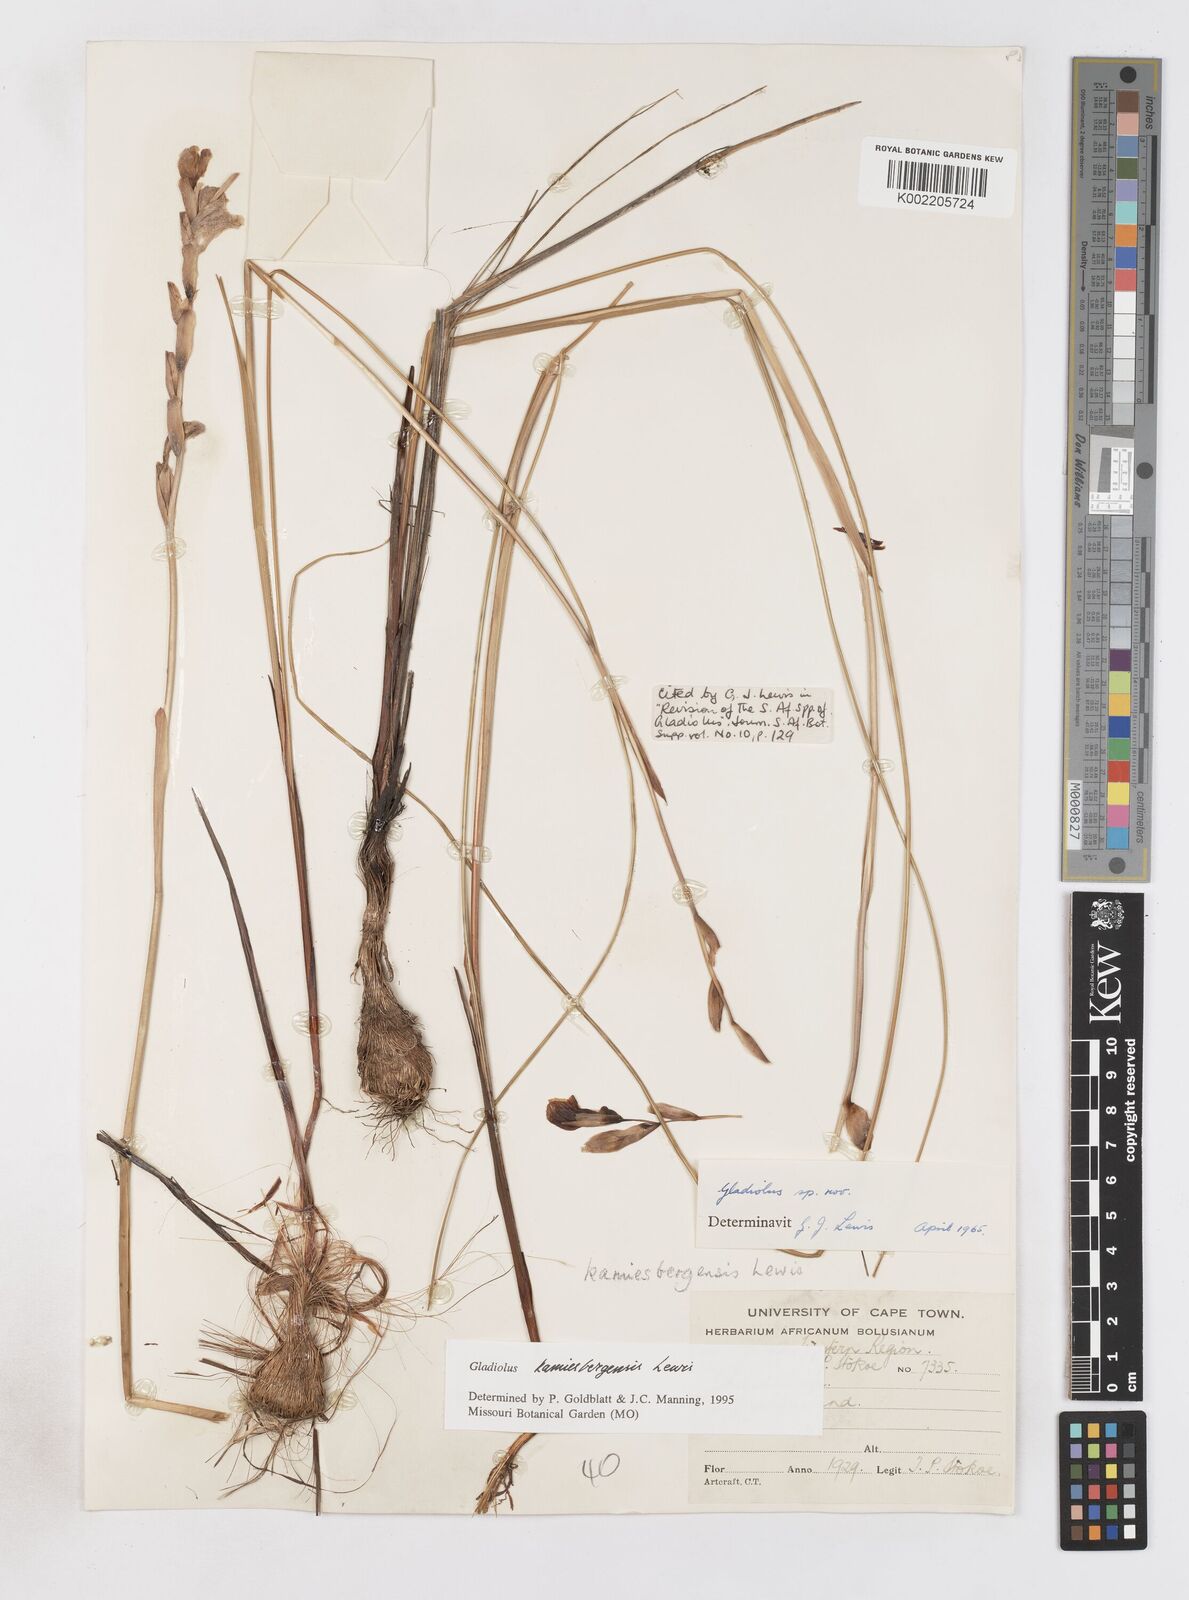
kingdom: Plantae
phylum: Tracheophyta
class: Liliopsida
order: Asparagales
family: Iridaceae
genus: Gladiolus
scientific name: Gladiolus kamiesbergensis
